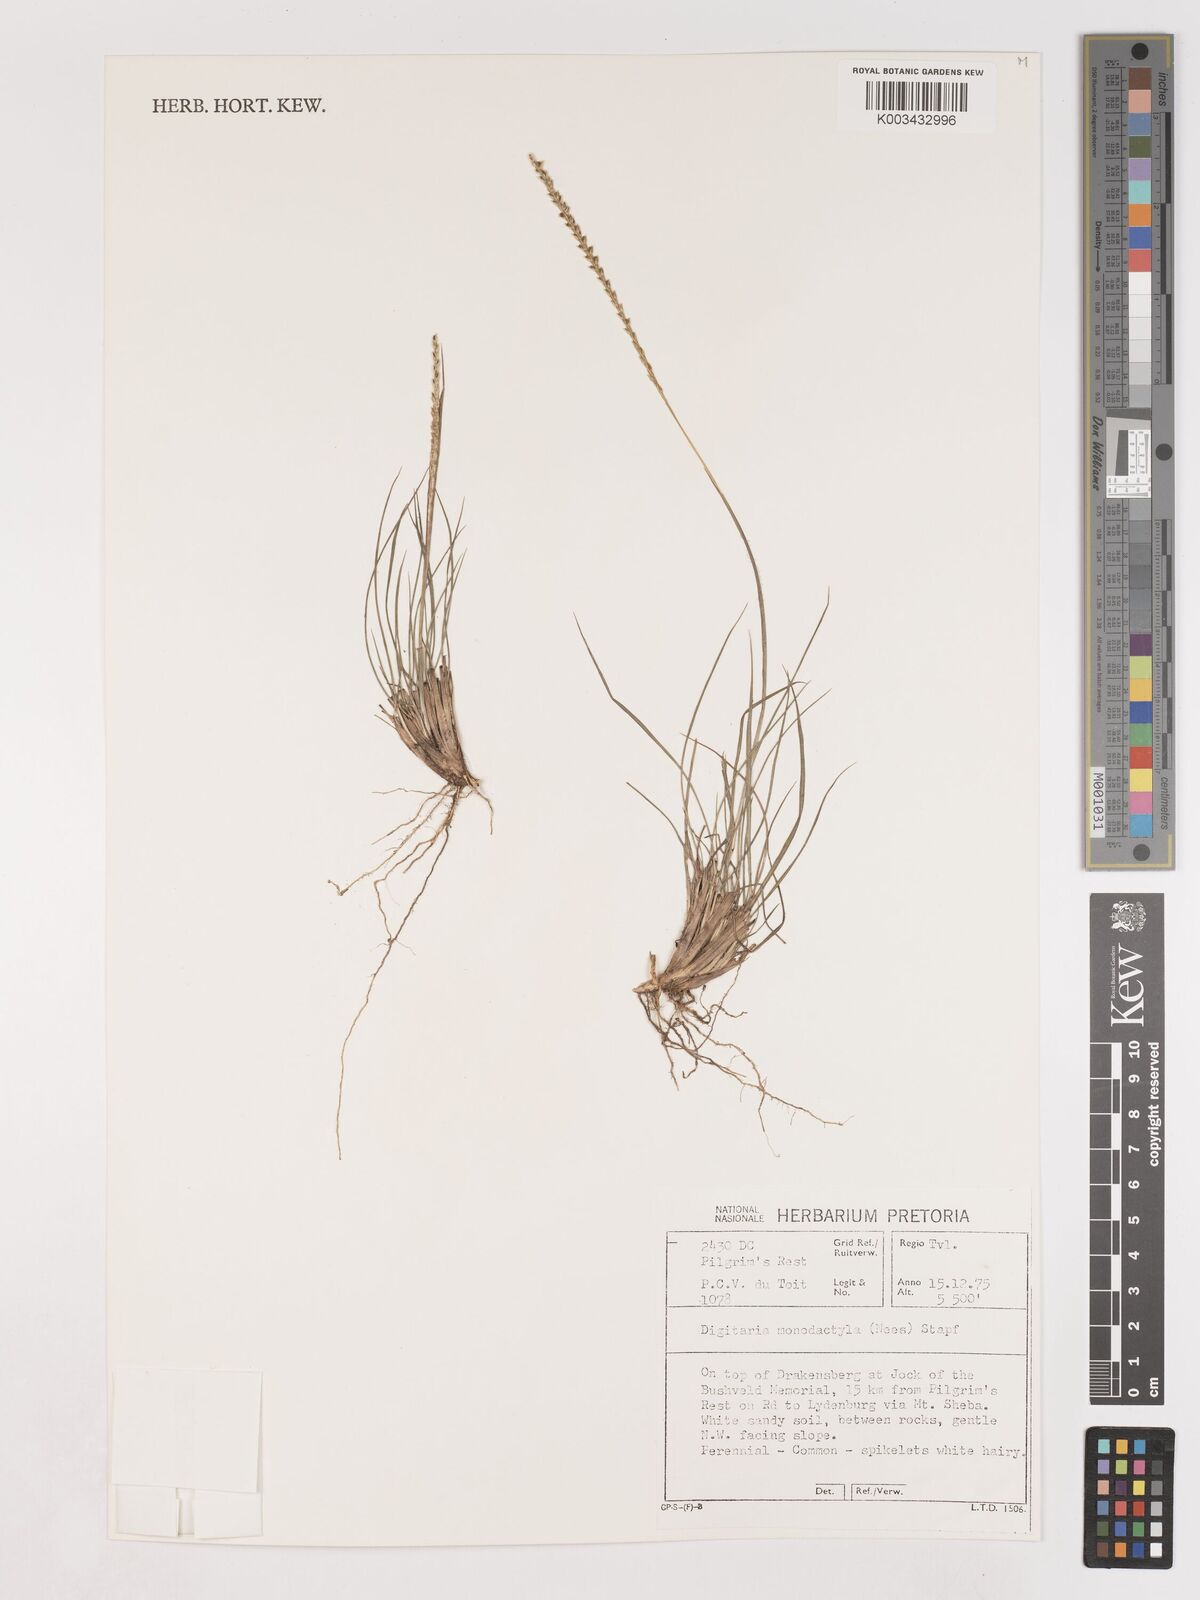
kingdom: Plantae
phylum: Tracheophyta
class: Liliopsida
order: Poales
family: Poaceae
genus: Digitaria
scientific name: Digitaria monodactyla
